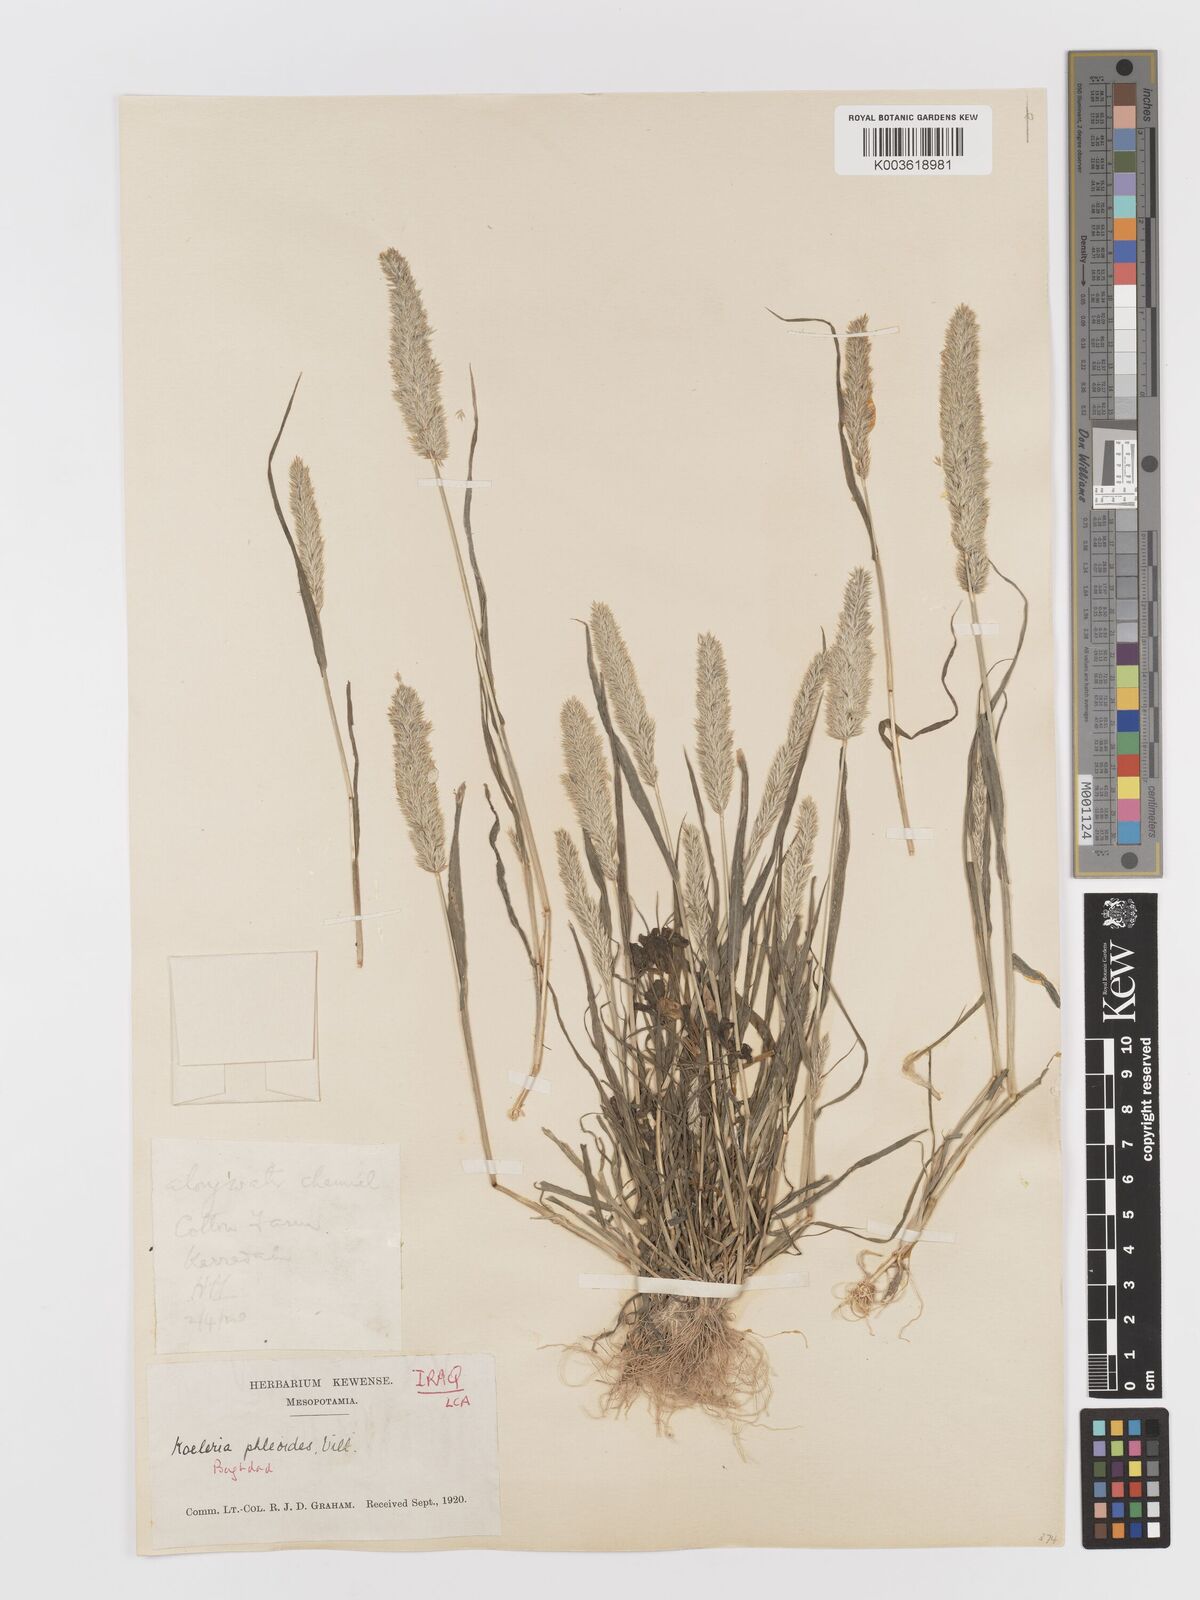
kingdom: Plantae
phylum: Tracheophyta
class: Liliopsida
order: Poales
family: Poaceae
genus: Rostraria
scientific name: Rostraria cristata
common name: Mediterranean hair-grass
